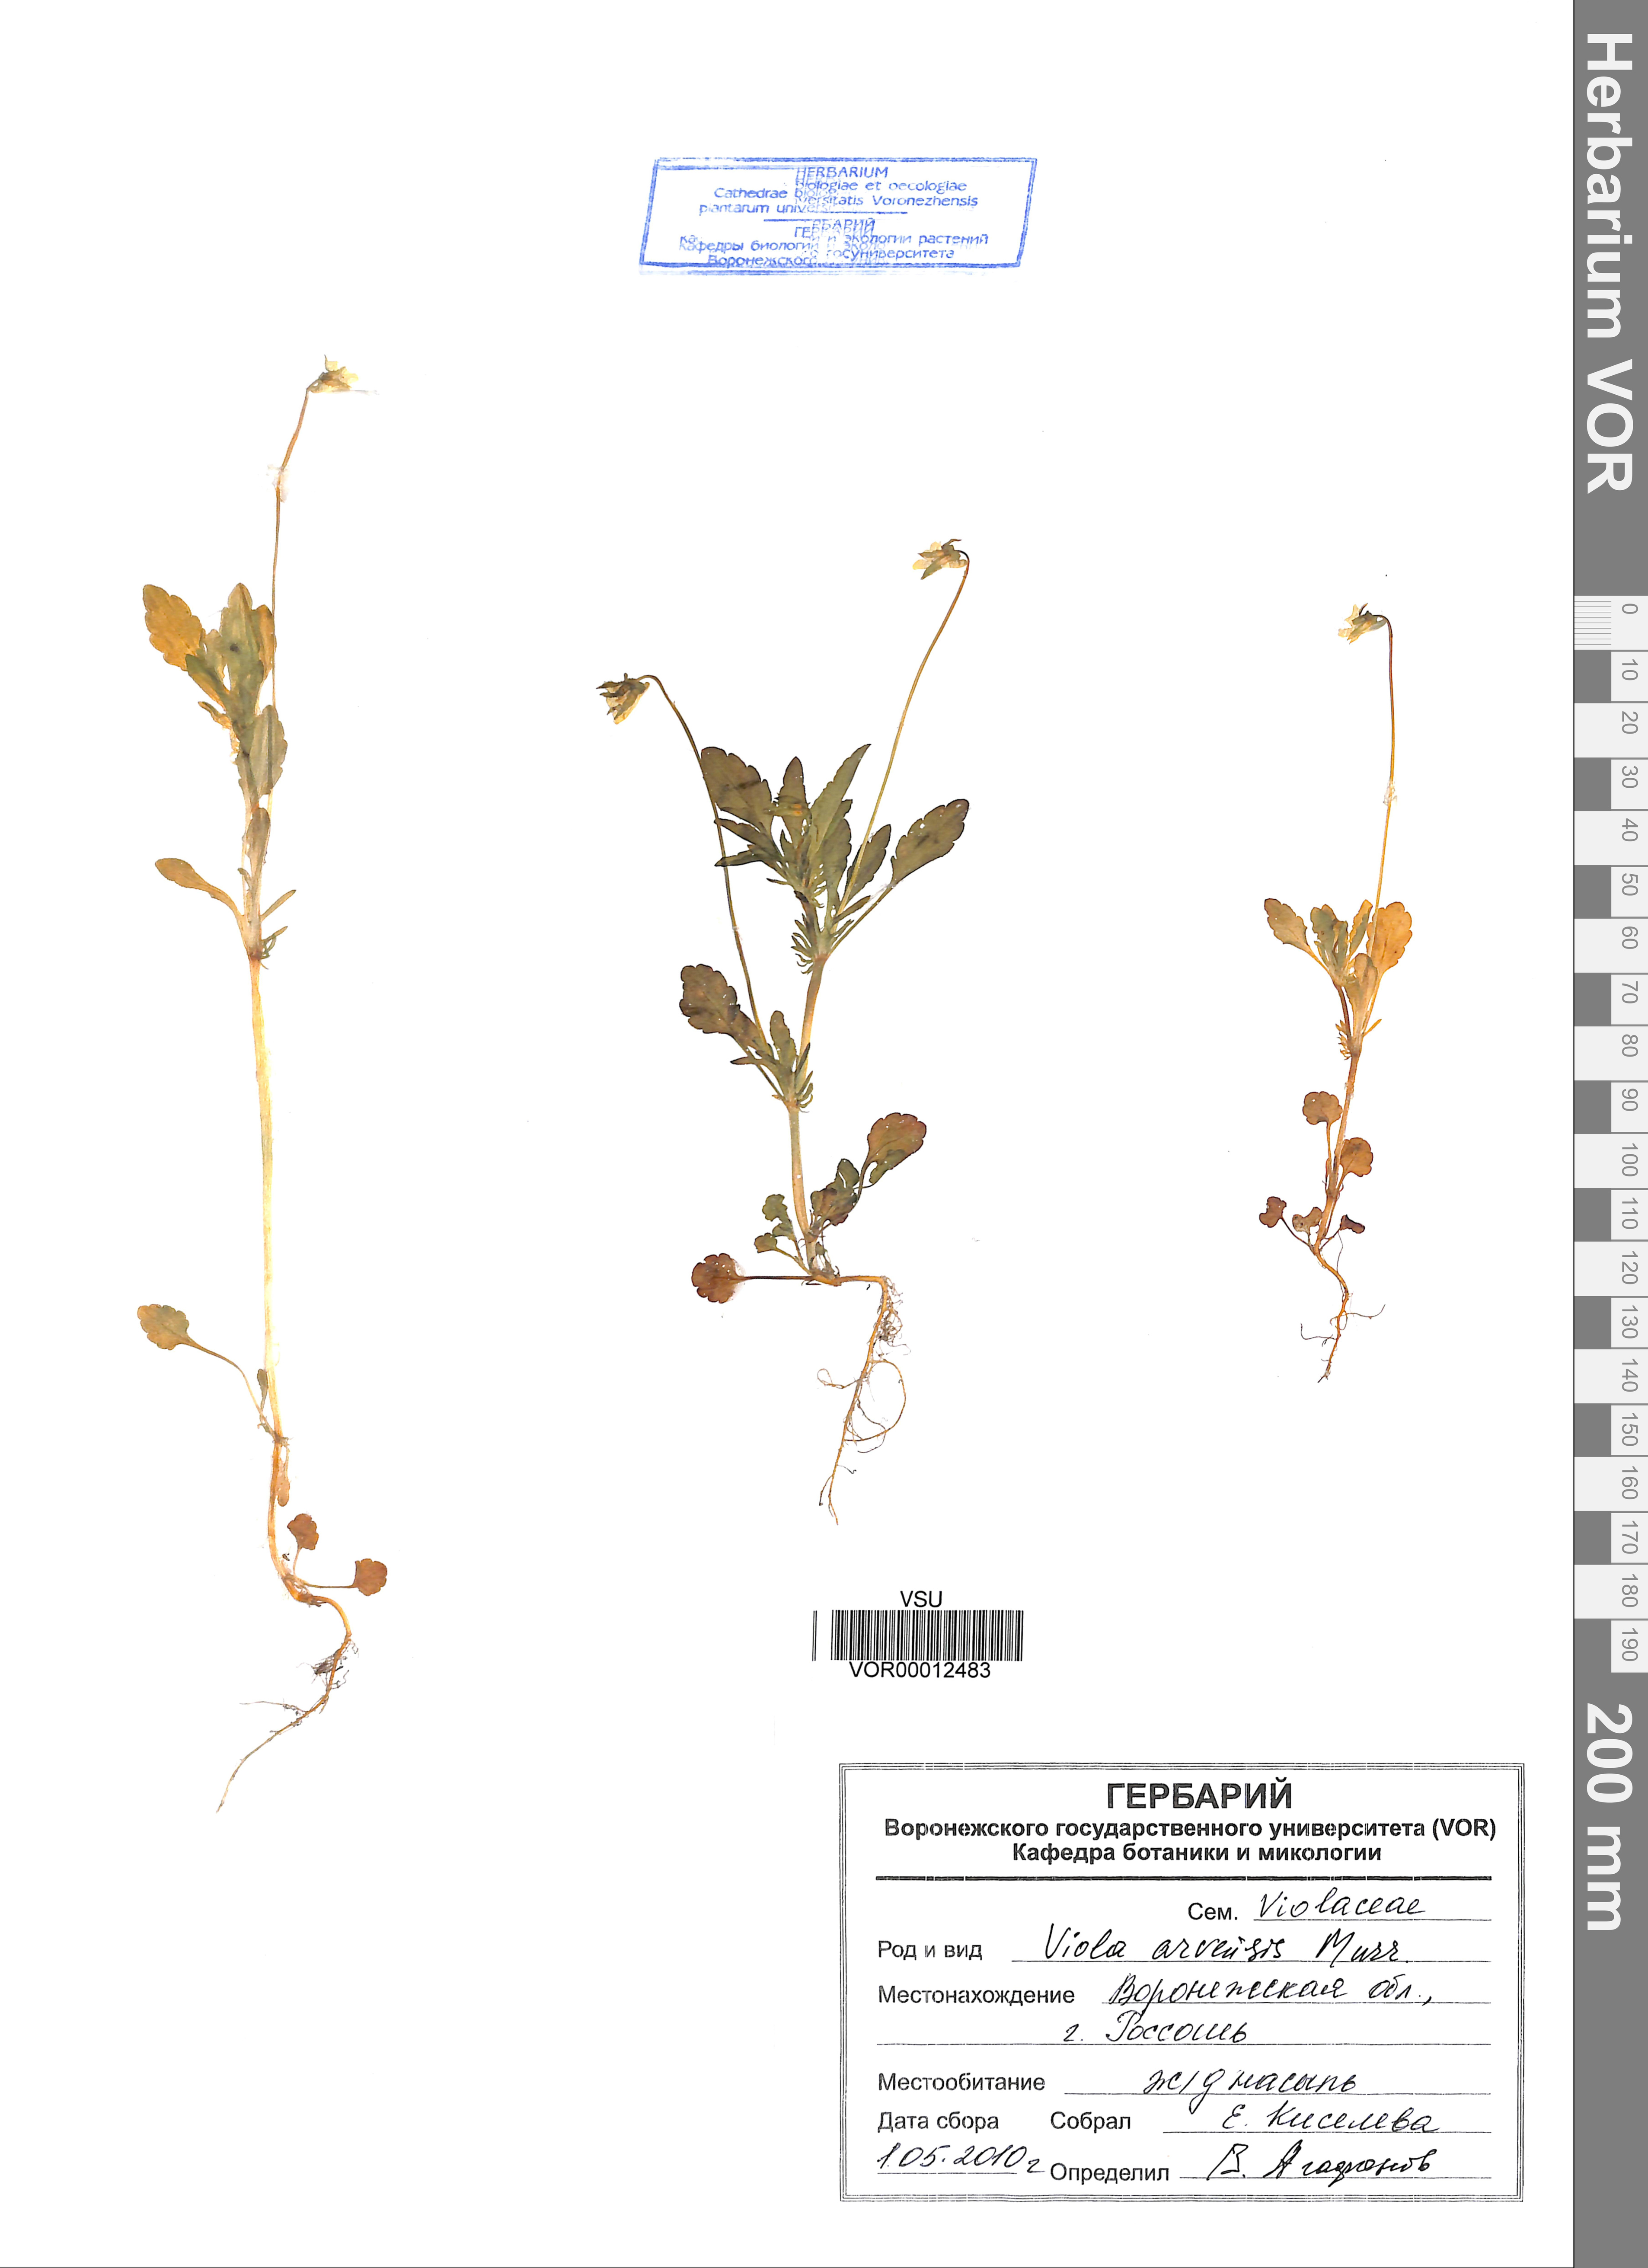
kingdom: Plantae
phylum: Tracheophyta
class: Magnoliopsida
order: Malpighiales
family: Violaceae
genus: Viola
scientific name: Viola arvensis
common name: Field pansy
